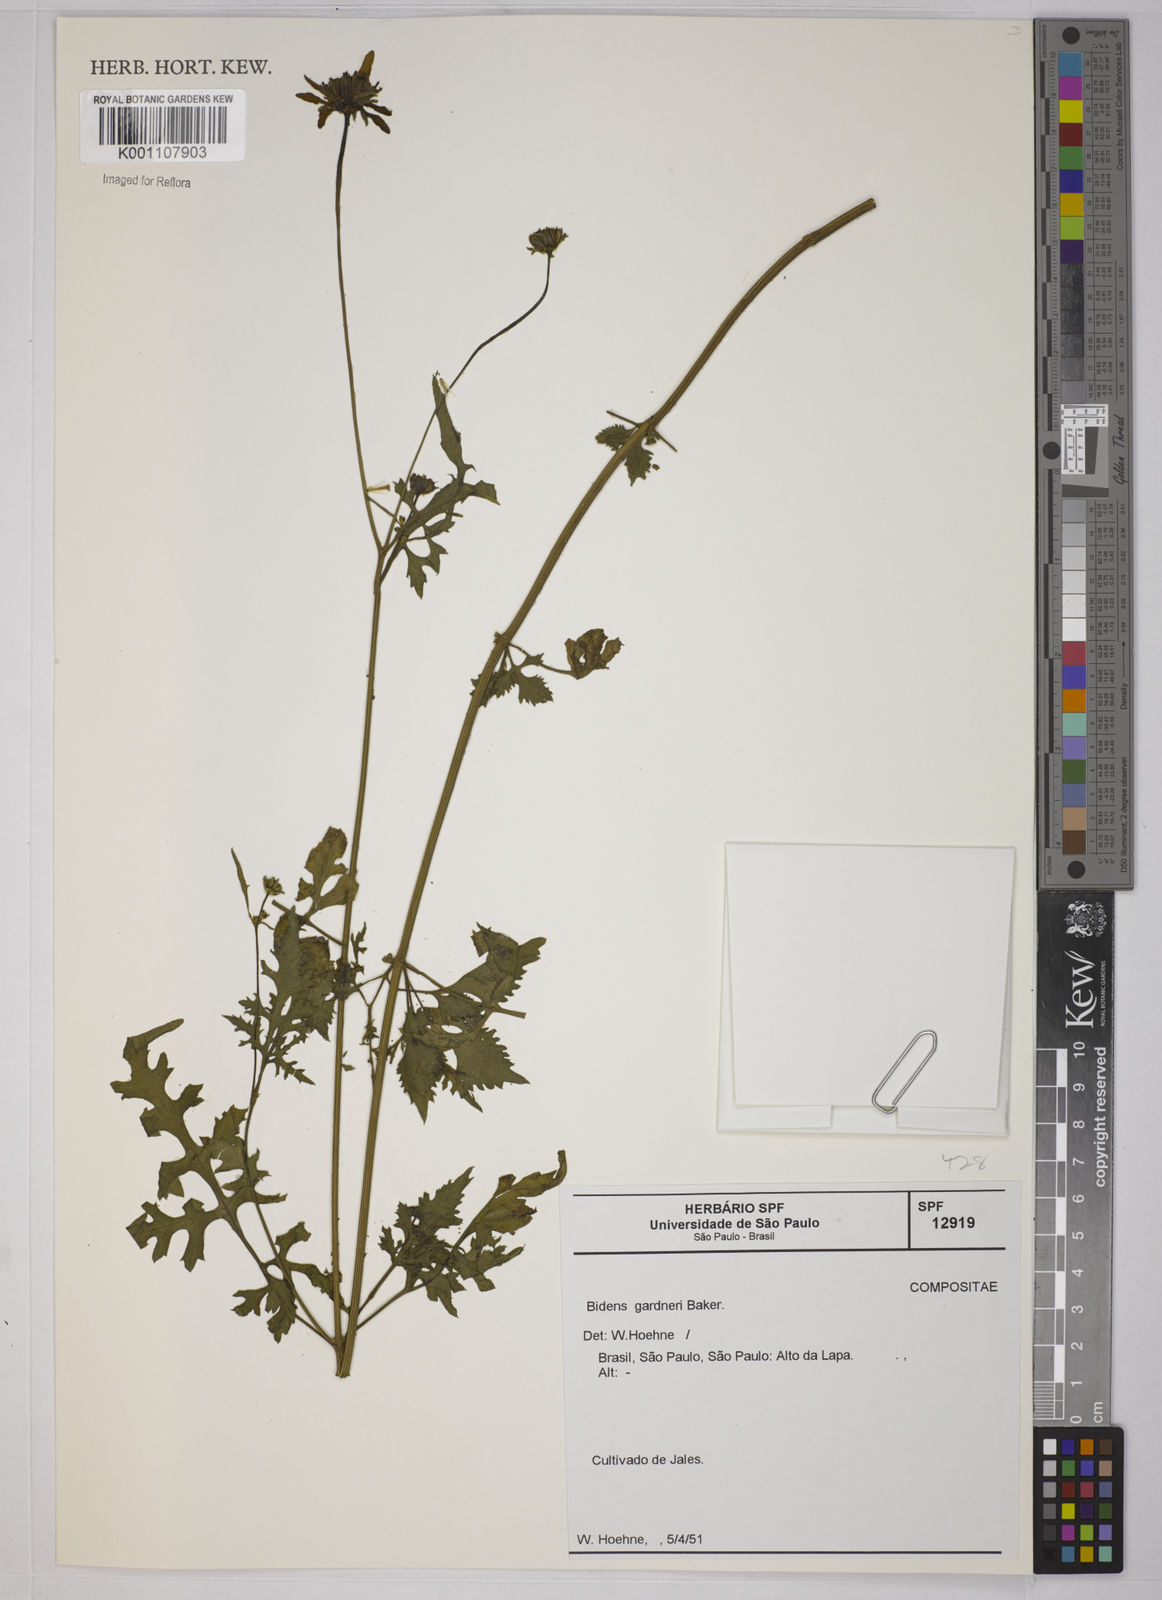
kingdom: Plantae
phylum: Tracheophyta
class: Magnoliopsida
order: Asterales
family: Asteraceae
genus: Bidens
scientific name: Bidens gardneri
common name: Ridge beggartick
